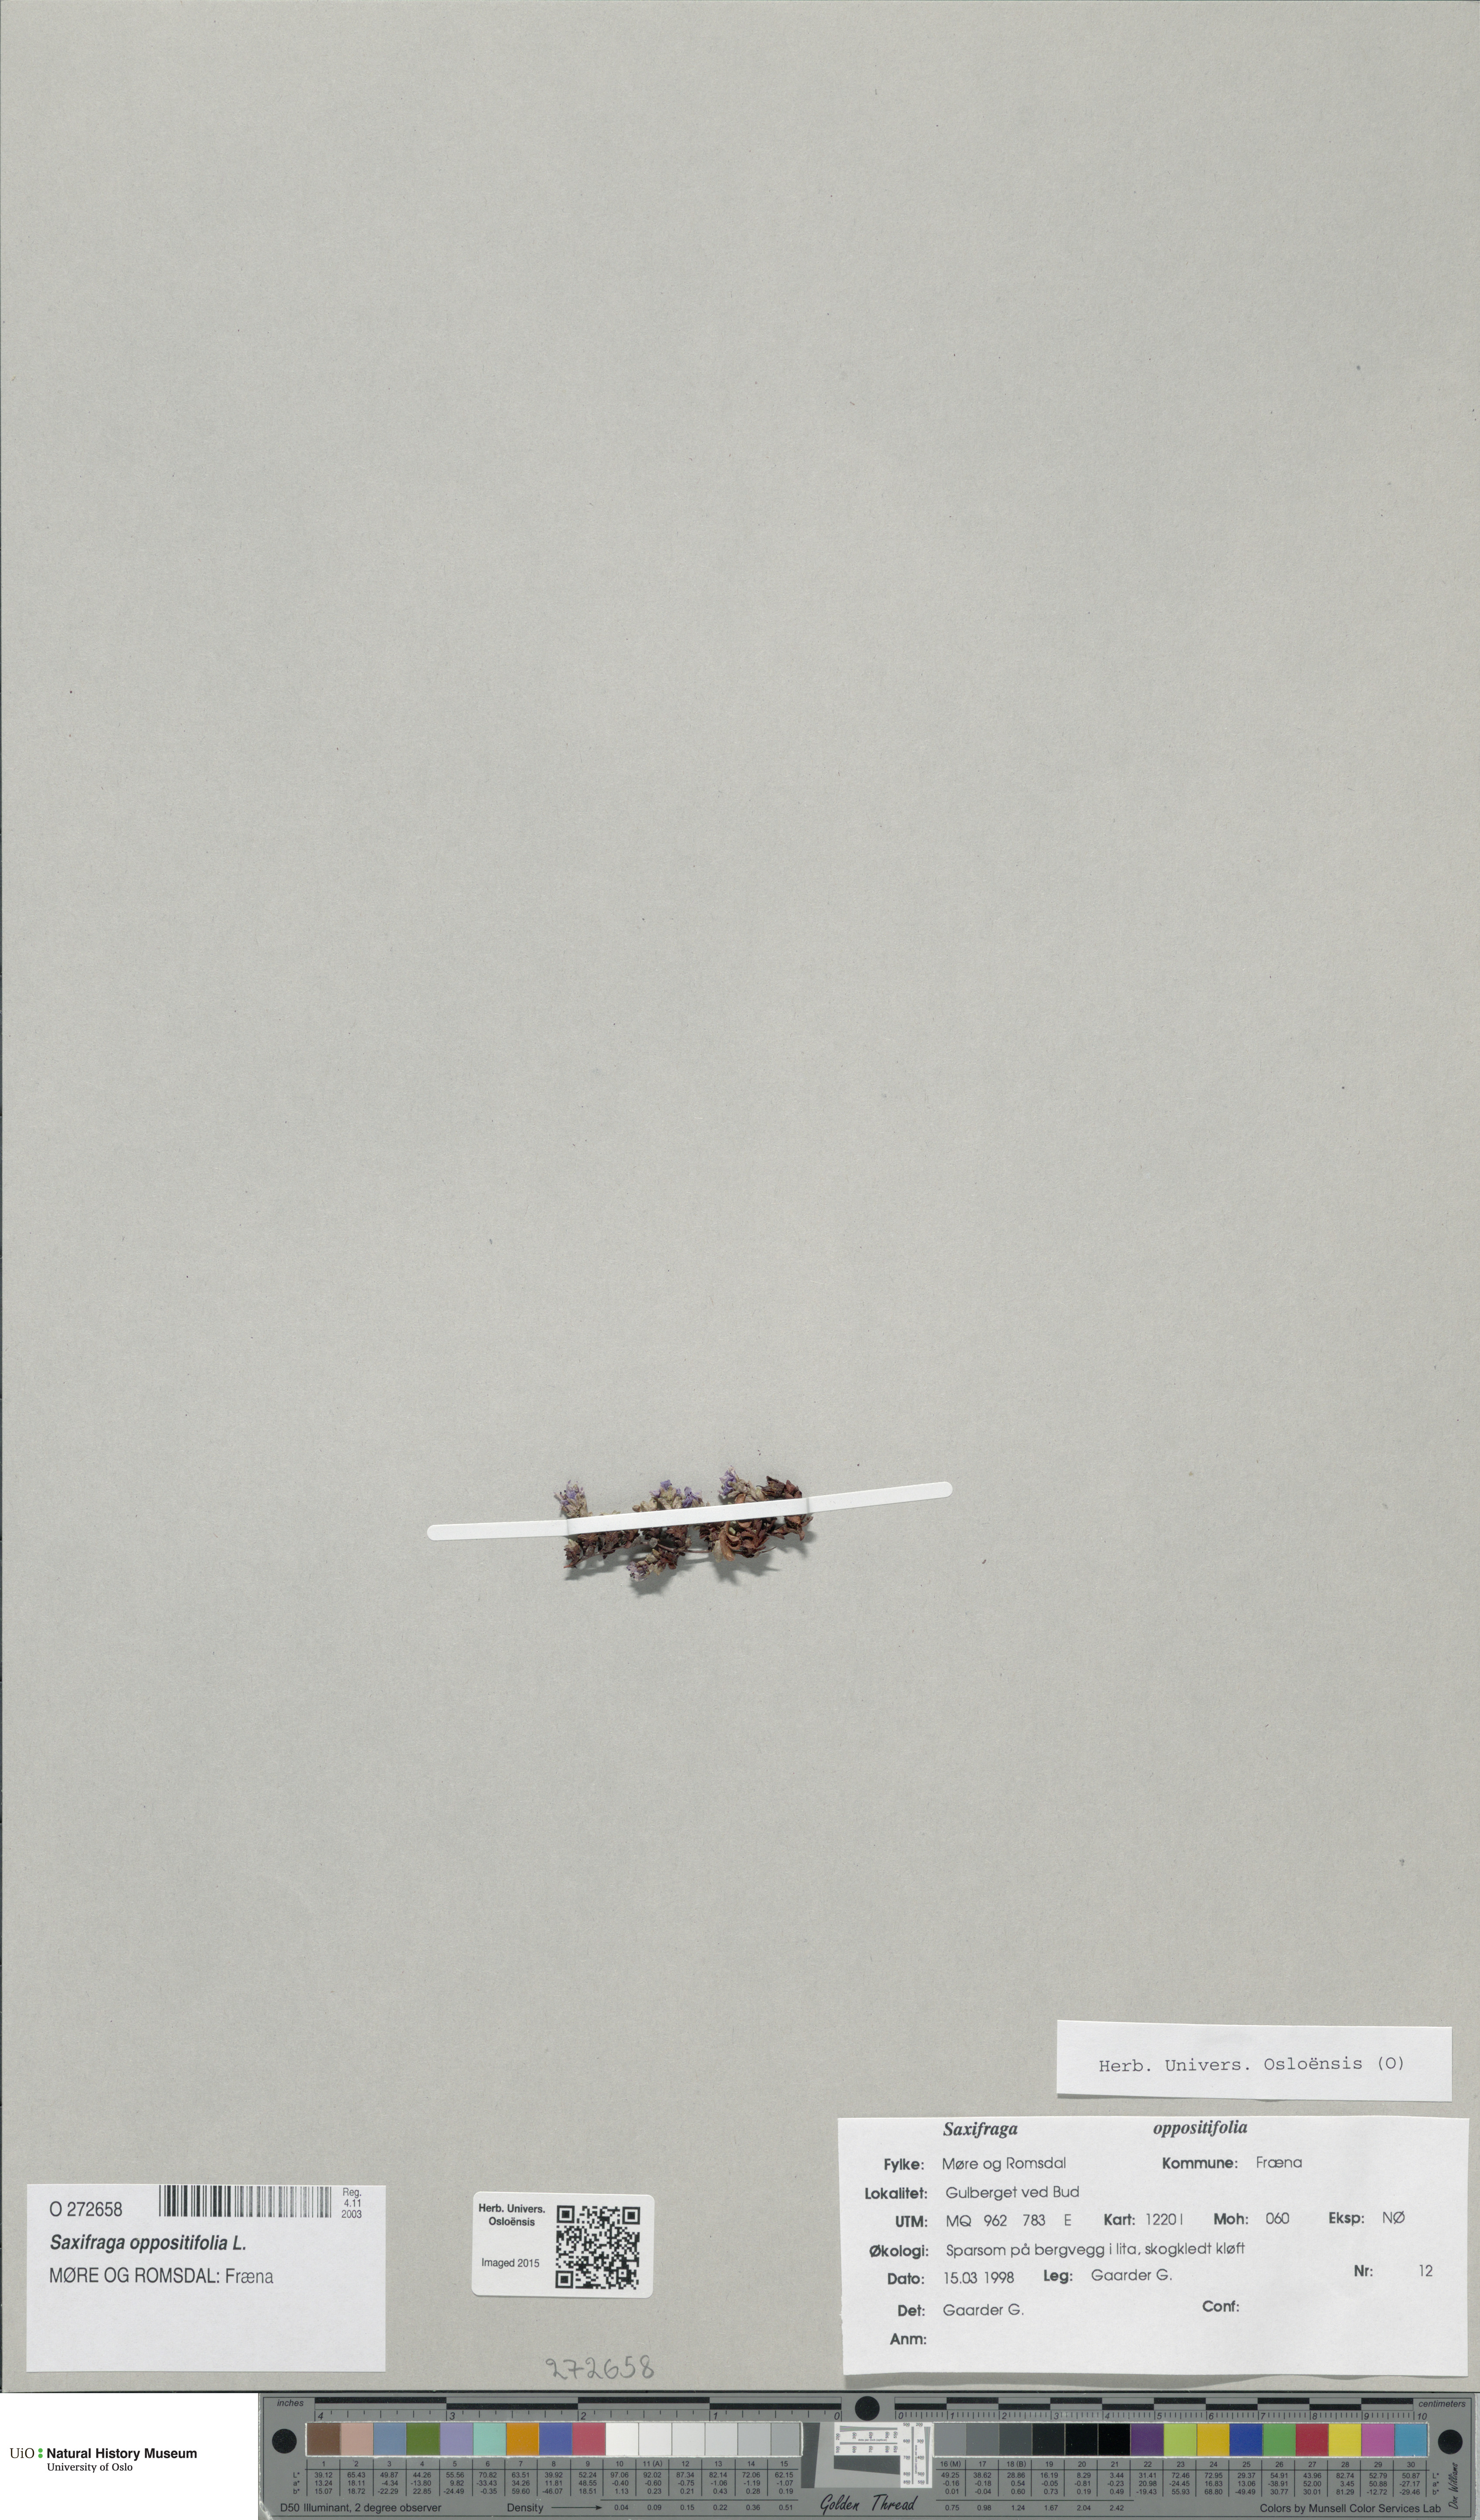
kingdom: Plantae
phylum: Tracheophyta
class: Magnoliopsida
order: Saxifragales
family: Saxifragaceae
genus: Saxifraga
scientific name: Saxifraga oppositifolia
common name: Purple saxifrage
